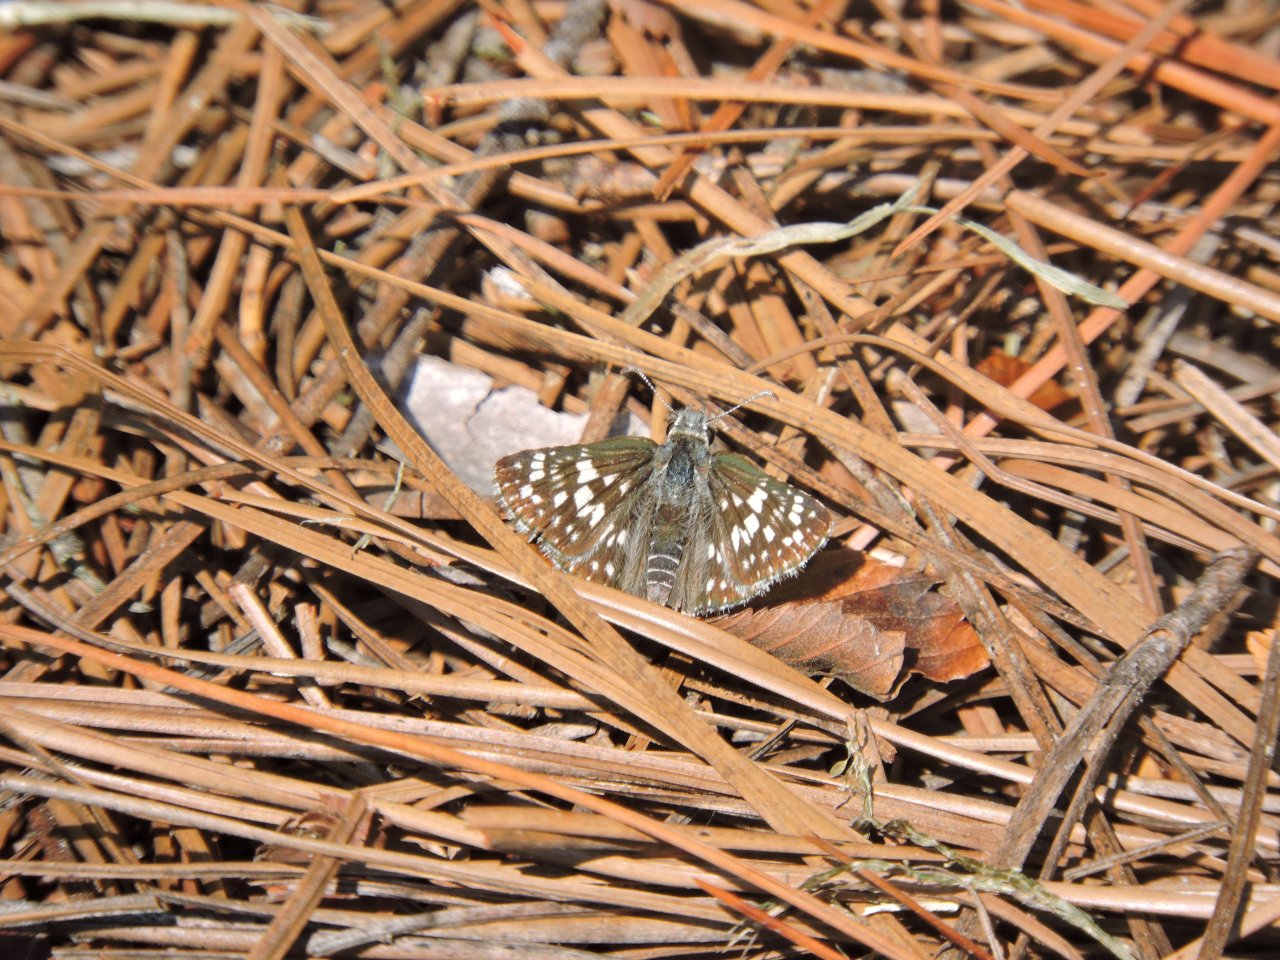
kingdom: Animalia
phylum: Arthropoda
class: Insecta
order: Lepidoptera
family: Hesperiidae
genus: Pyrgus
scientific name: Pyrgus
